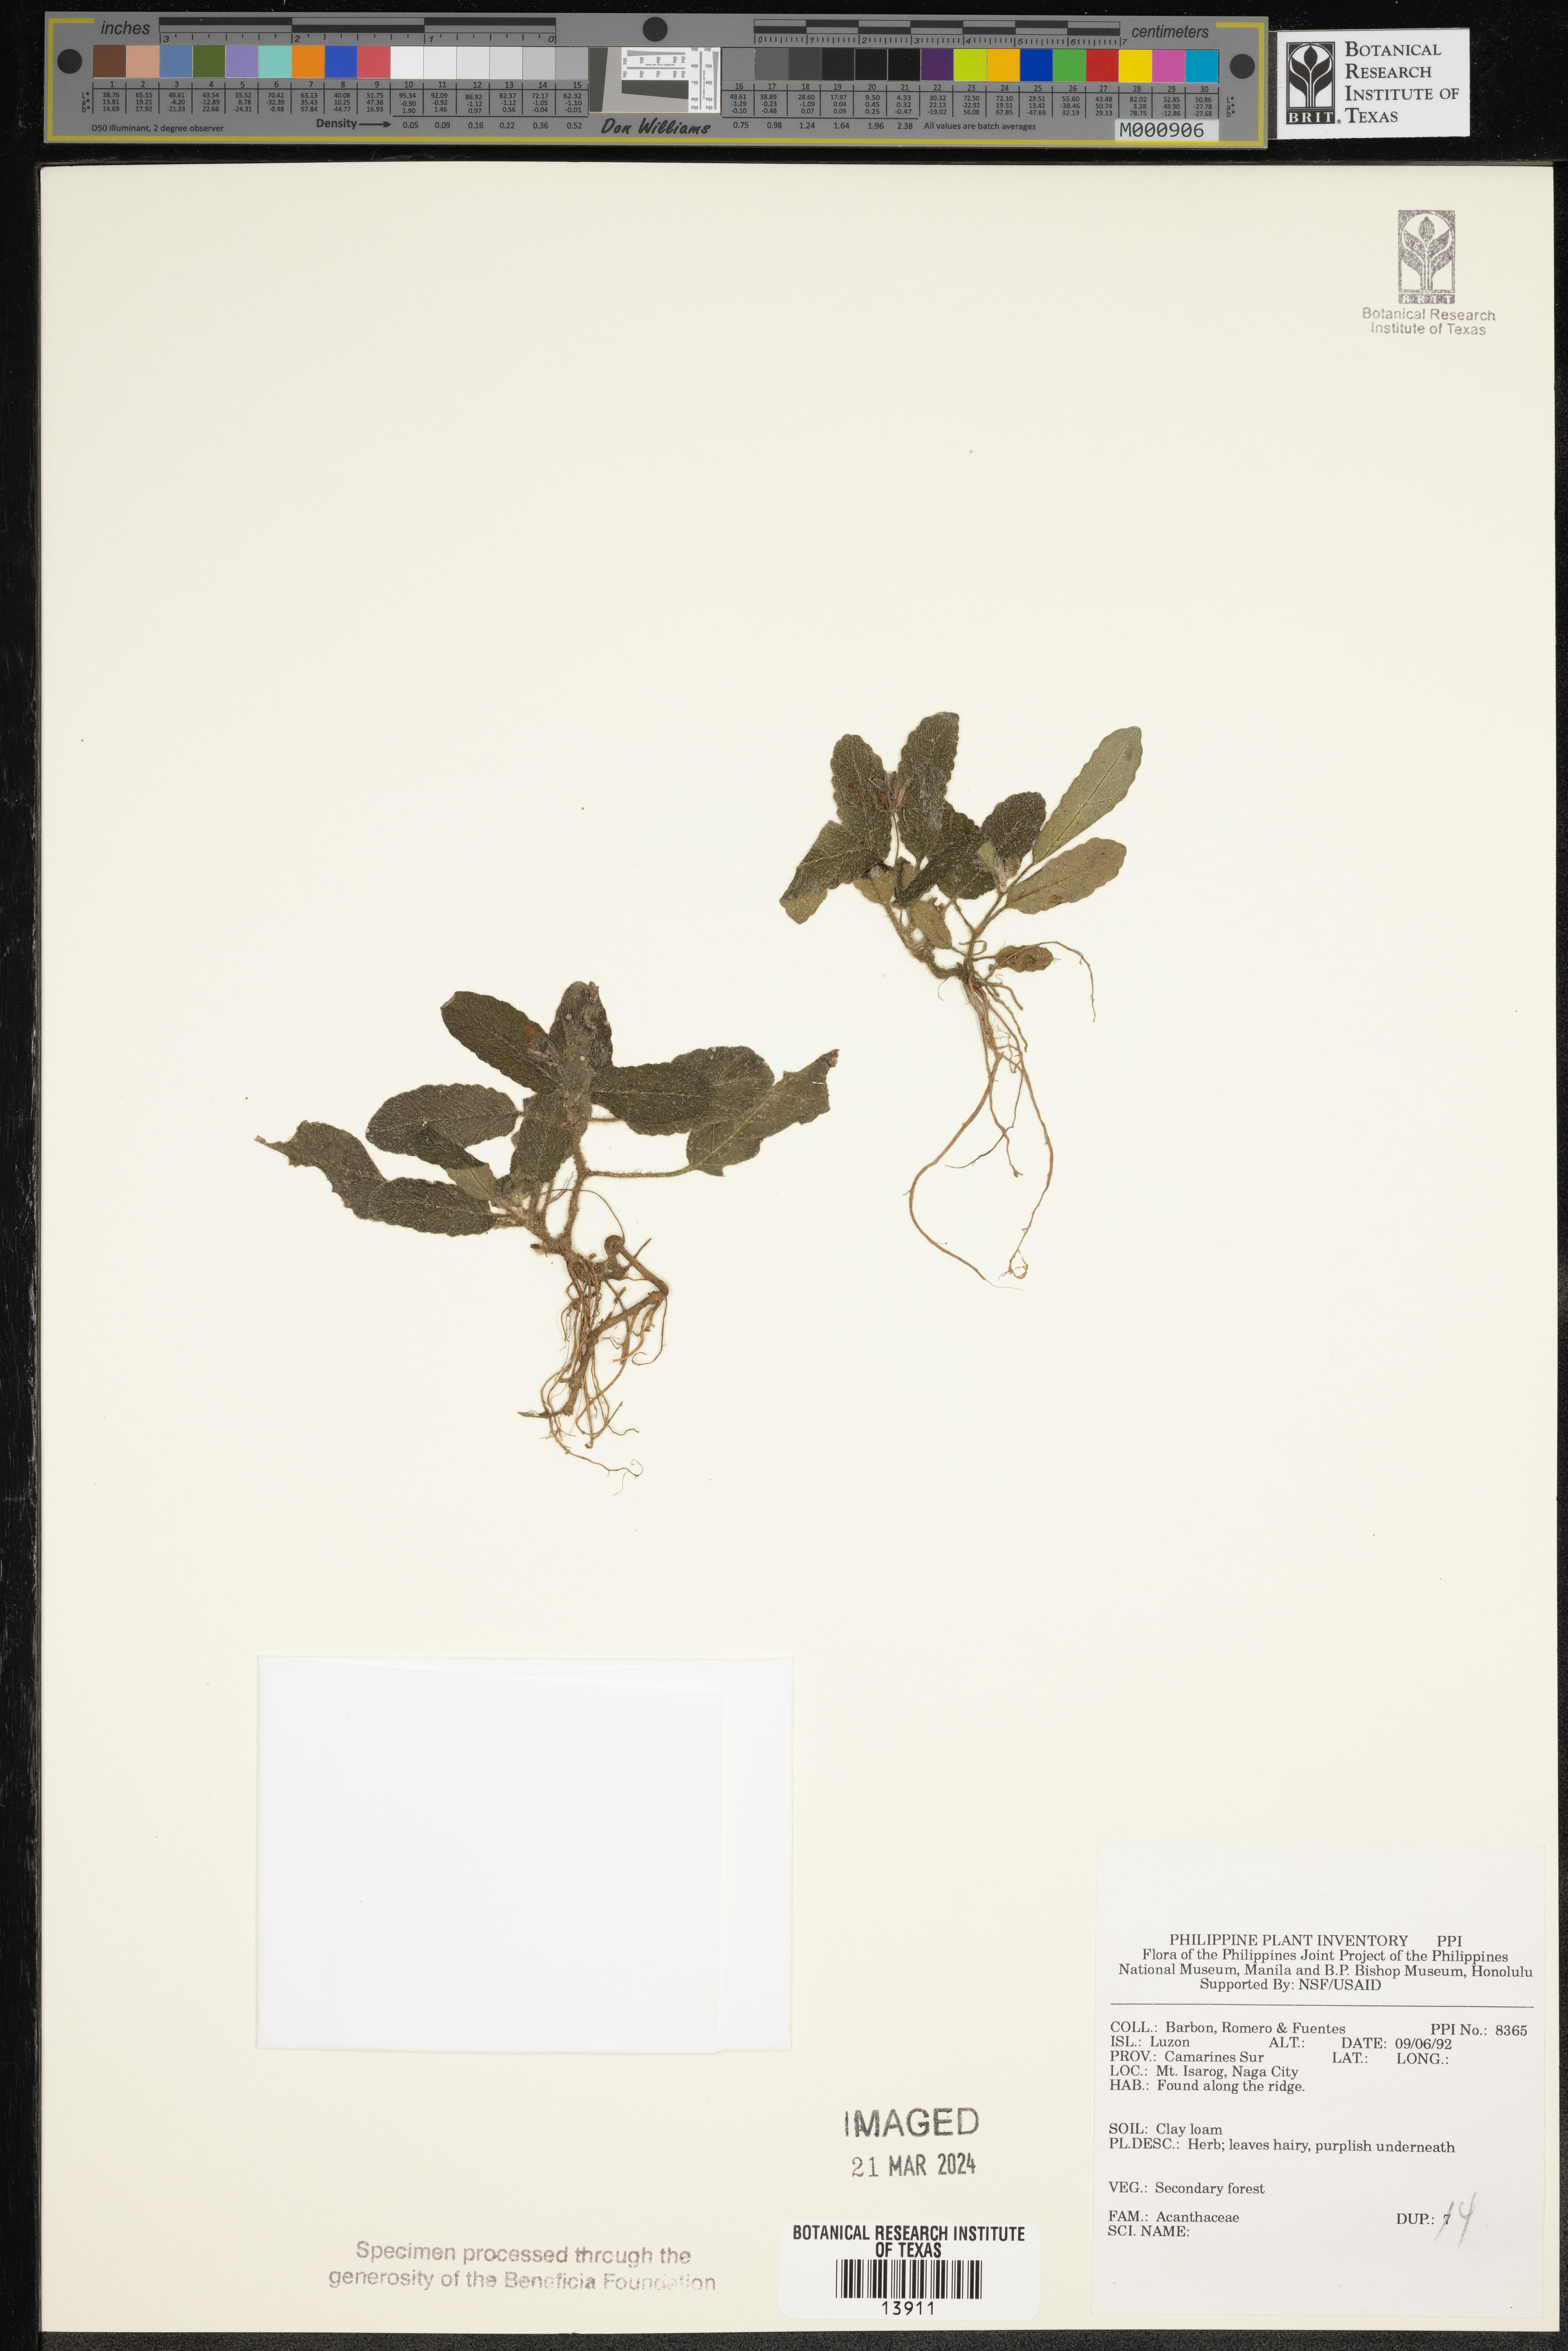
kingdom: Plantae
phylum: Tracheophyta
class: Magnoliopsida
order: Lamiales
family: Acanthaceae
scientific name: Acanthaceae
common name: Acanthaceae
